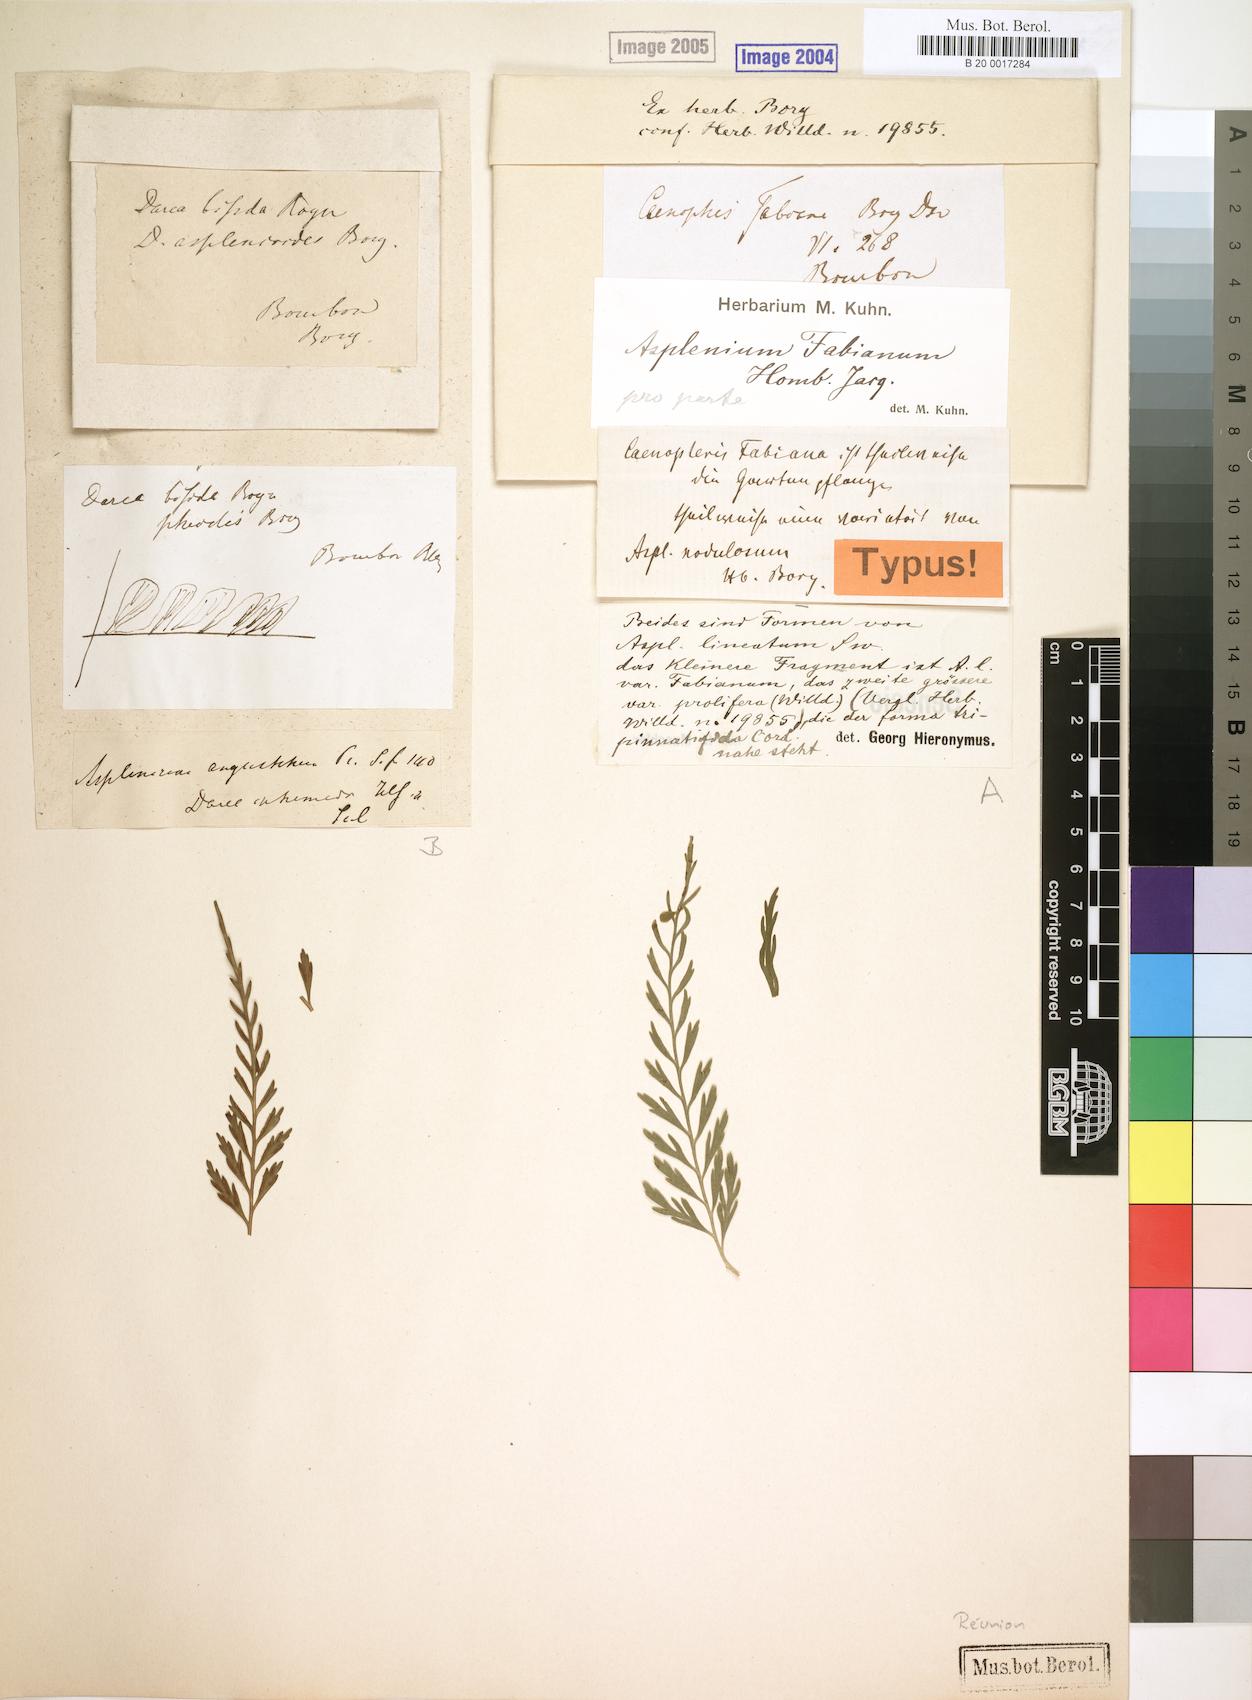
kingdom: Plantae
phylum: Tracheophyta
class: Polypodiopsida
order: Polypodiales
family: Aspleniaceae
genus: Asplenium
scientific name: Asplenium daucifolium
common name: Mauritius spleenwort
